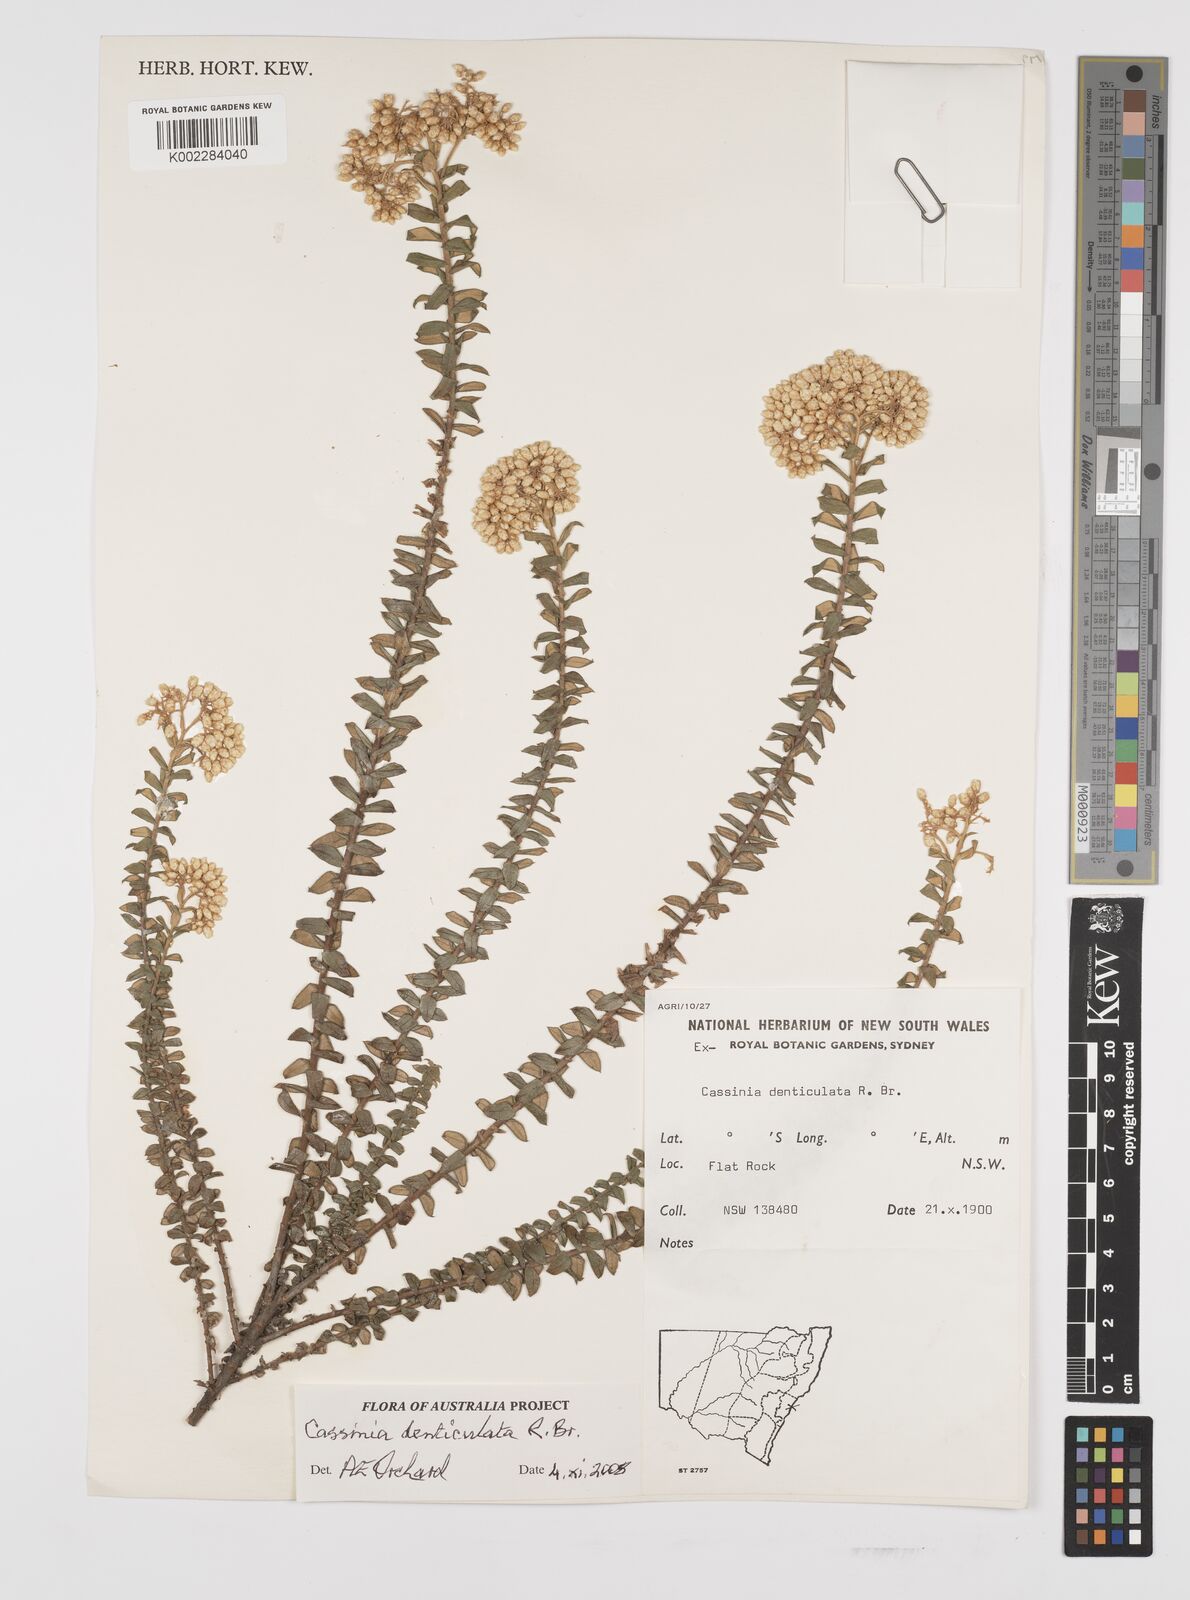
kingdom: Plantae
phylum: Tracheophyta
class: Magnoliopsida
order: Asterales
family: Asteraceae
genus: Cassinia
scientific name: Cassinia denticulata
